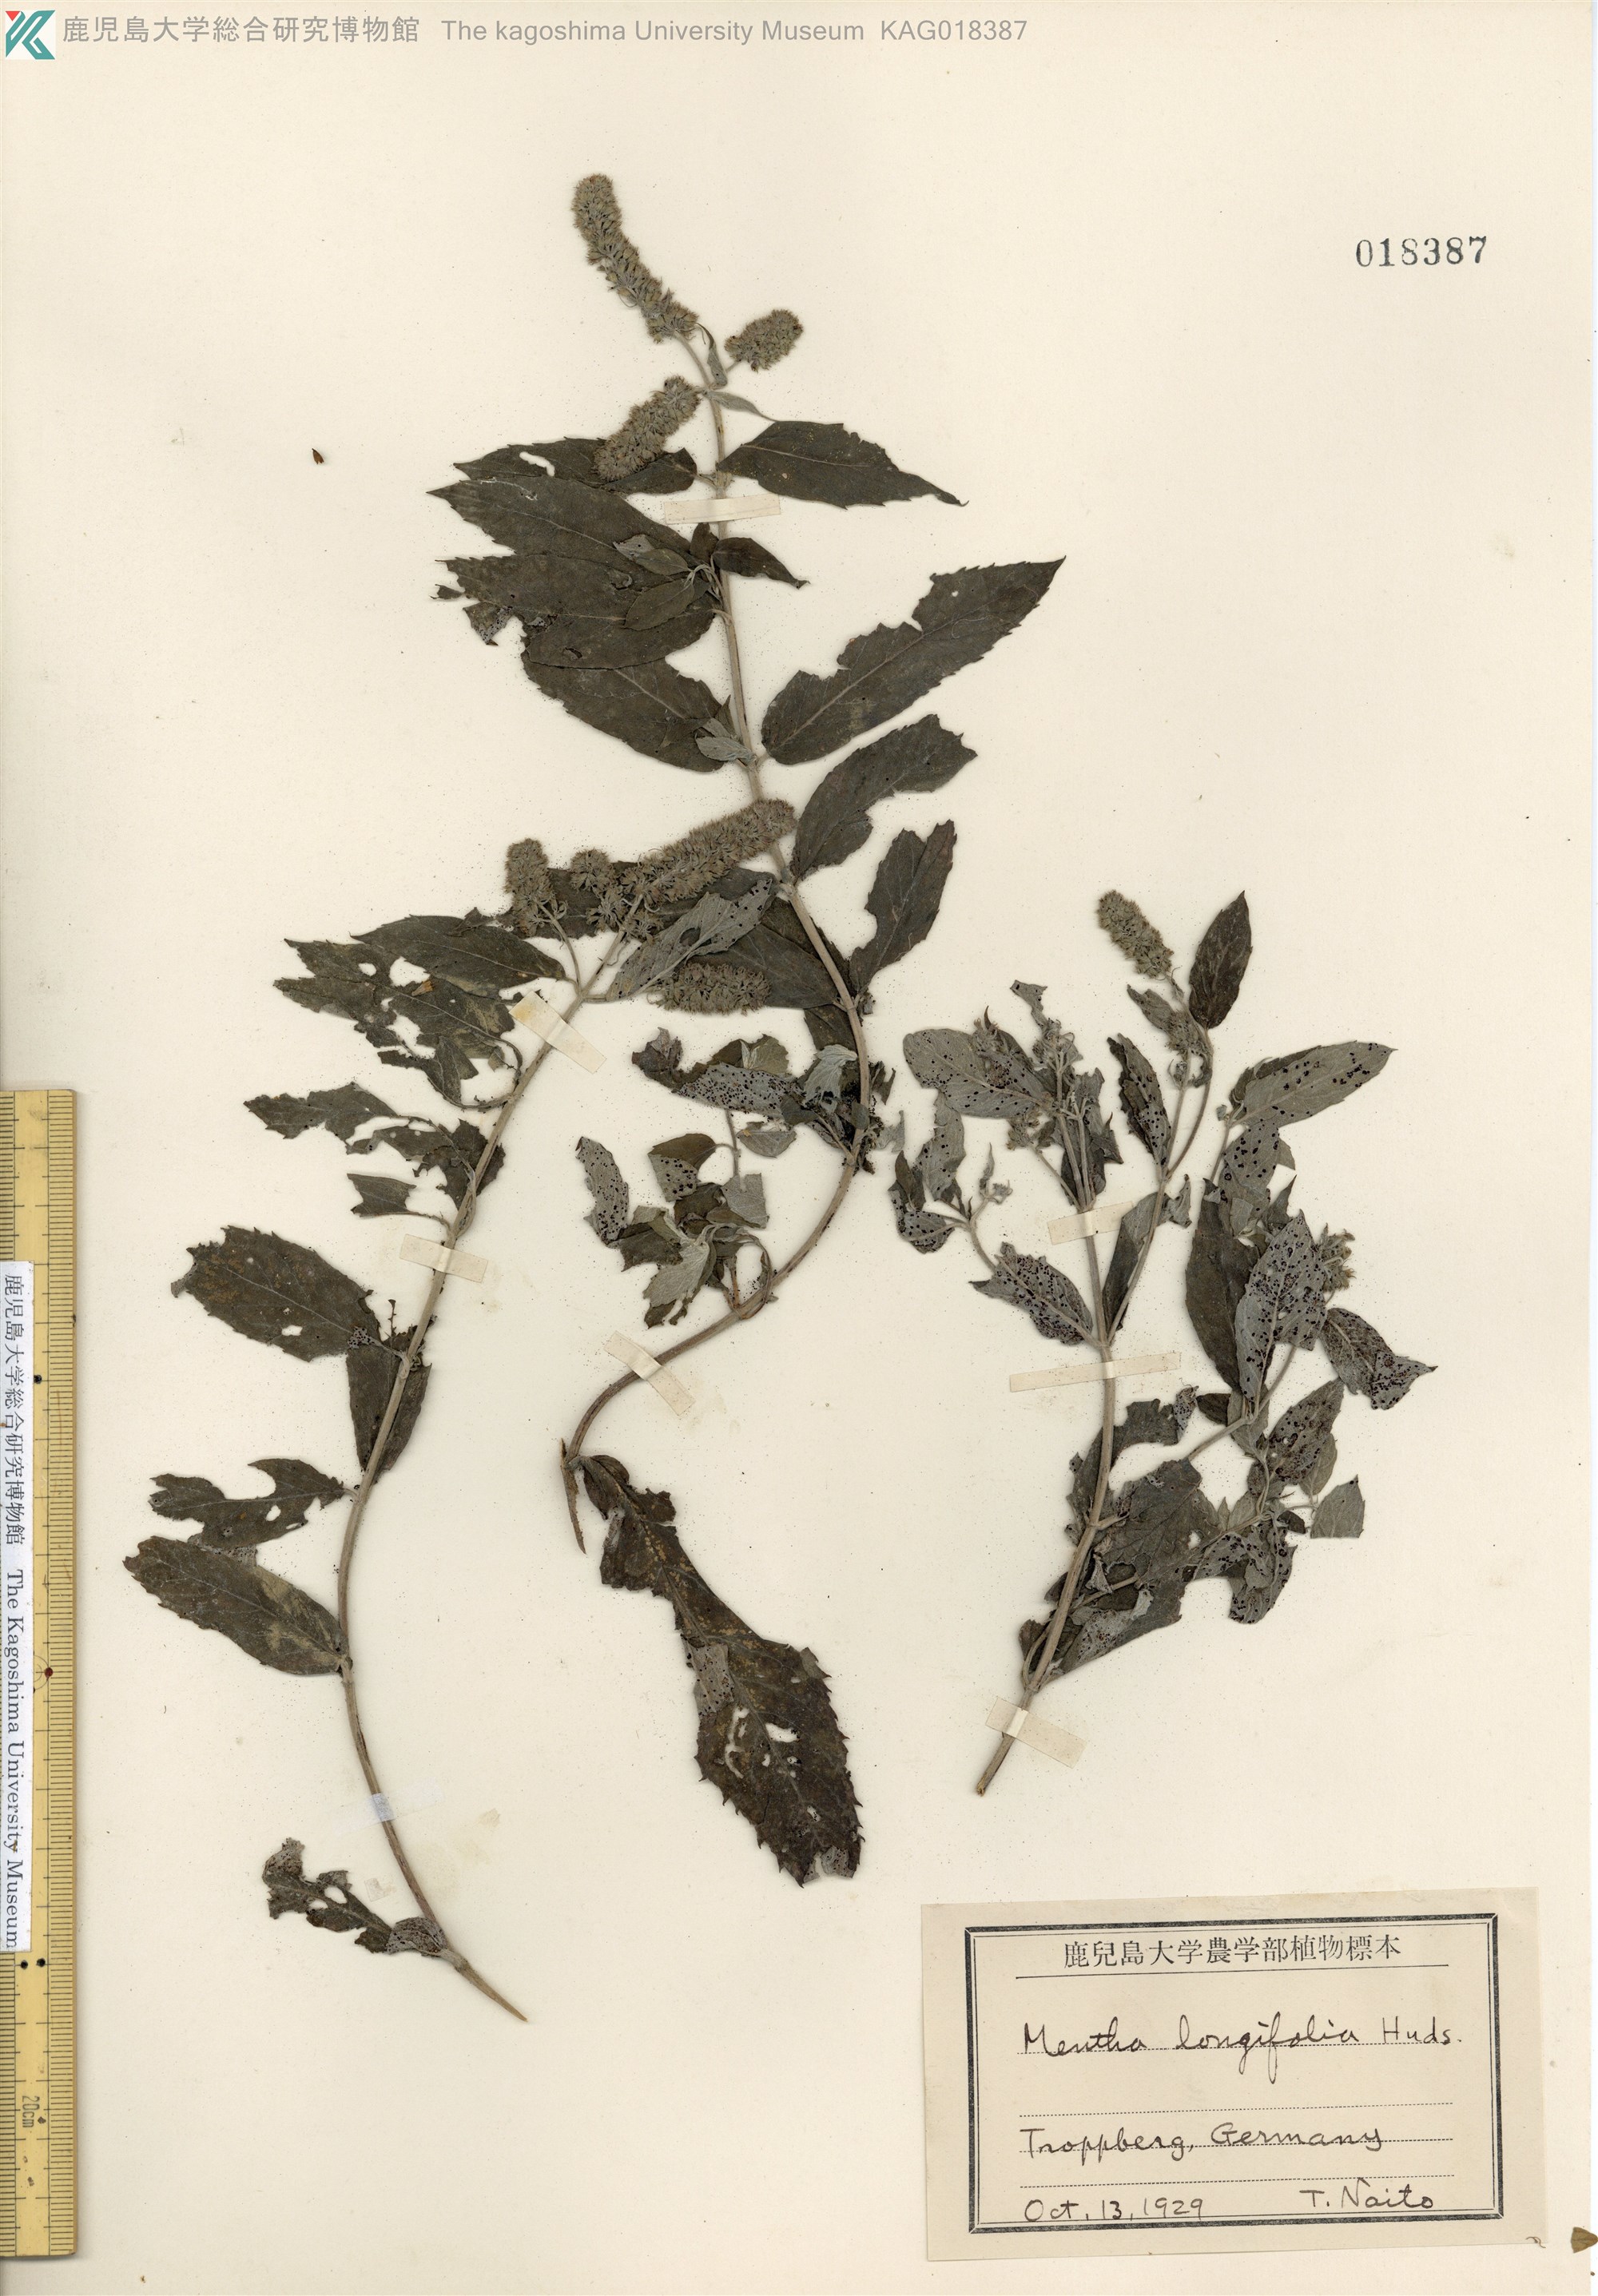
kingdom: Plantae
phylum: Tracheophyta
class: Magnoliopsida
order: Lamiales
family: Lamiaceae
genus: Mentha
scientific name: Mentha longifolia
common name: Horse mint
